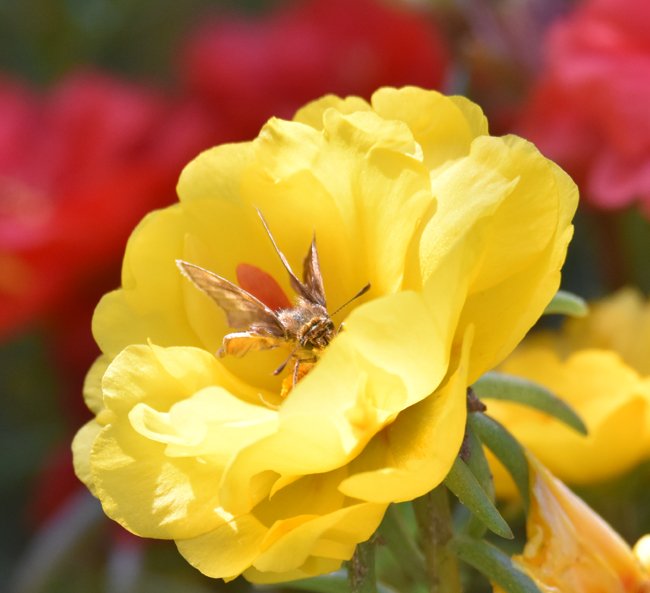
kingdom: Animalia
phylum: Arthropoda
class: Insecta
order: Lepidoptera
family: Hesperiidae
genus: Polites
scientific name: Polites coras
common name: Peck's Skipper
